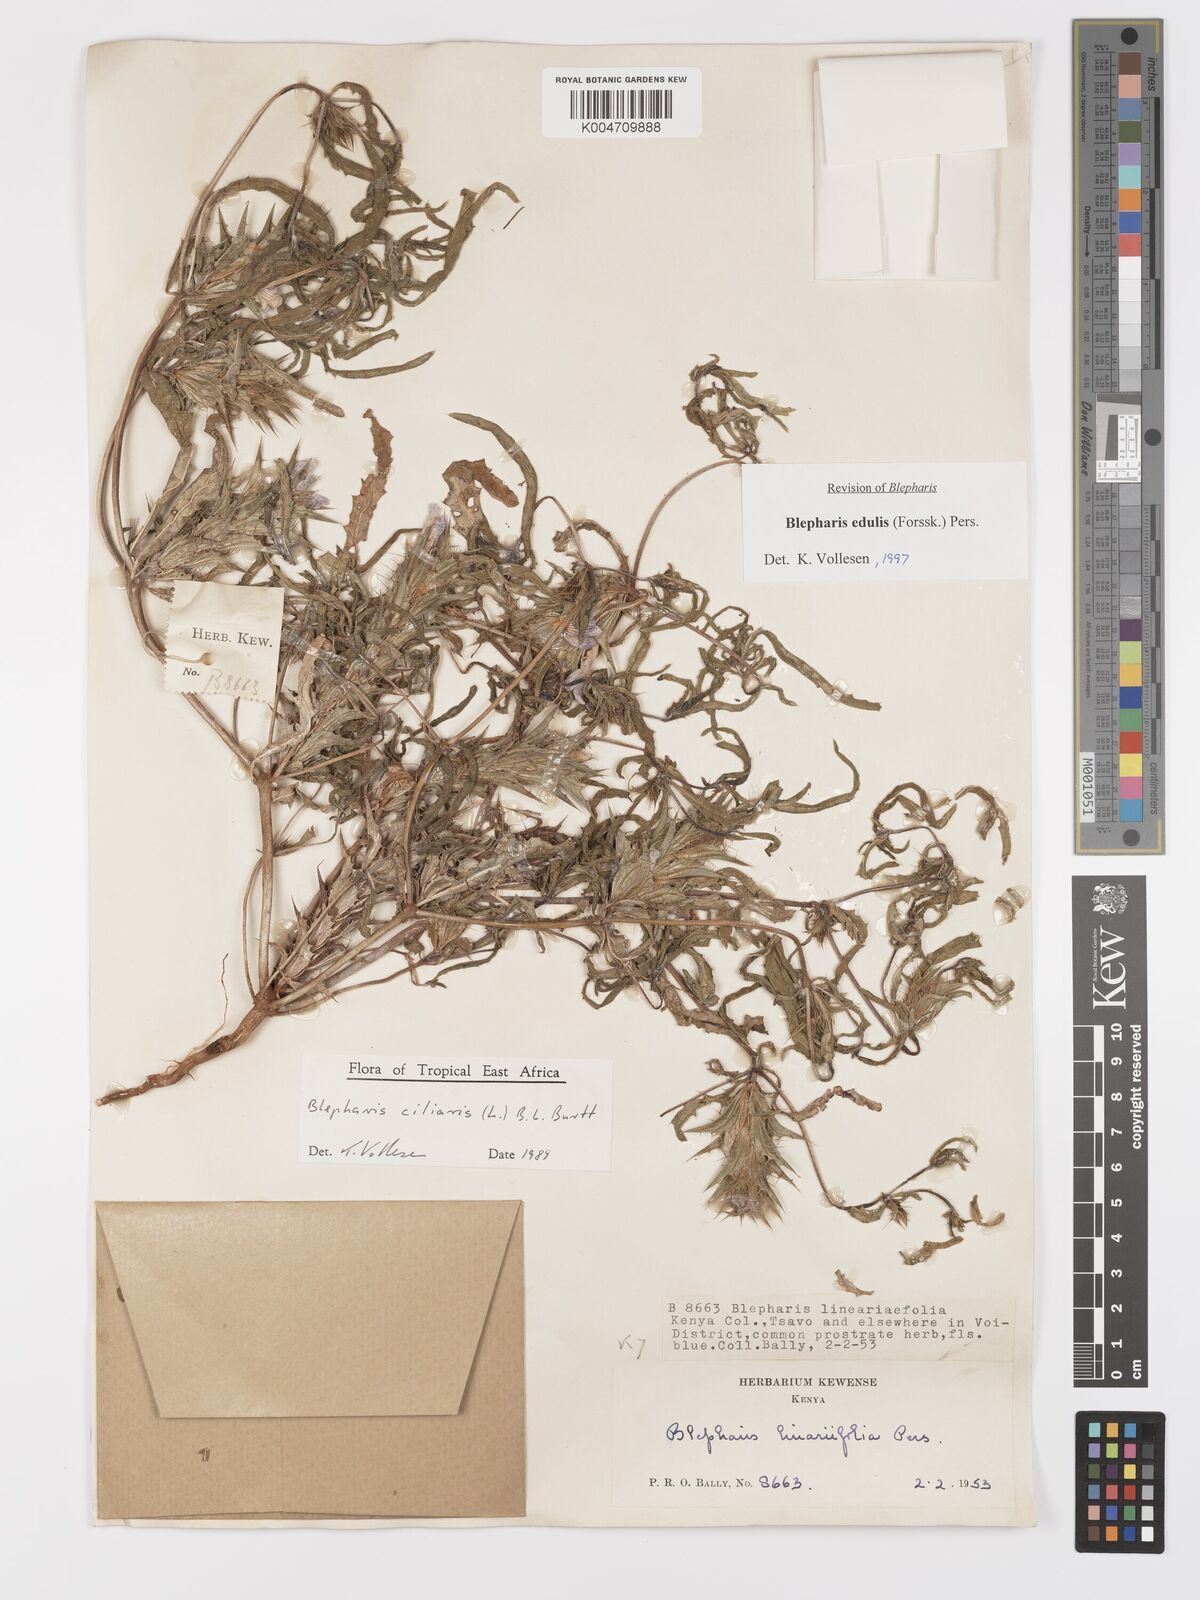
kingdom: Plantae
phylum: Tracheophyta
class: Magnoliopsida
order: Lamiales
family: Acanthaceae
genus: Blepharis
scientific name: Blepharis edulis
